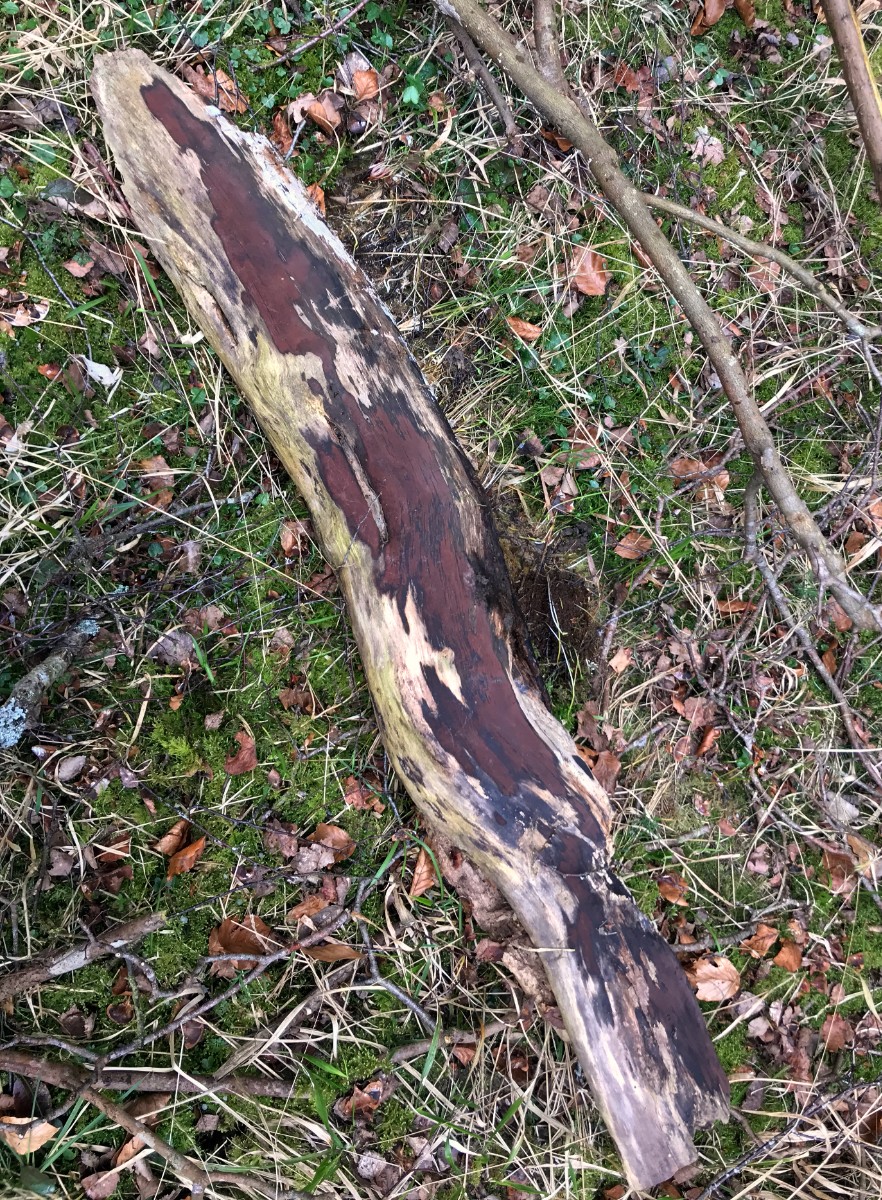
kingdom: Fungi
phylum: Ascomycota
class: Sordariomycetes
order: Xylariales
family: Hypoxylaceae
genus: Hypoxylon
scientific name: Hypoxylon petriniae
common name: nedsænket kulbær
